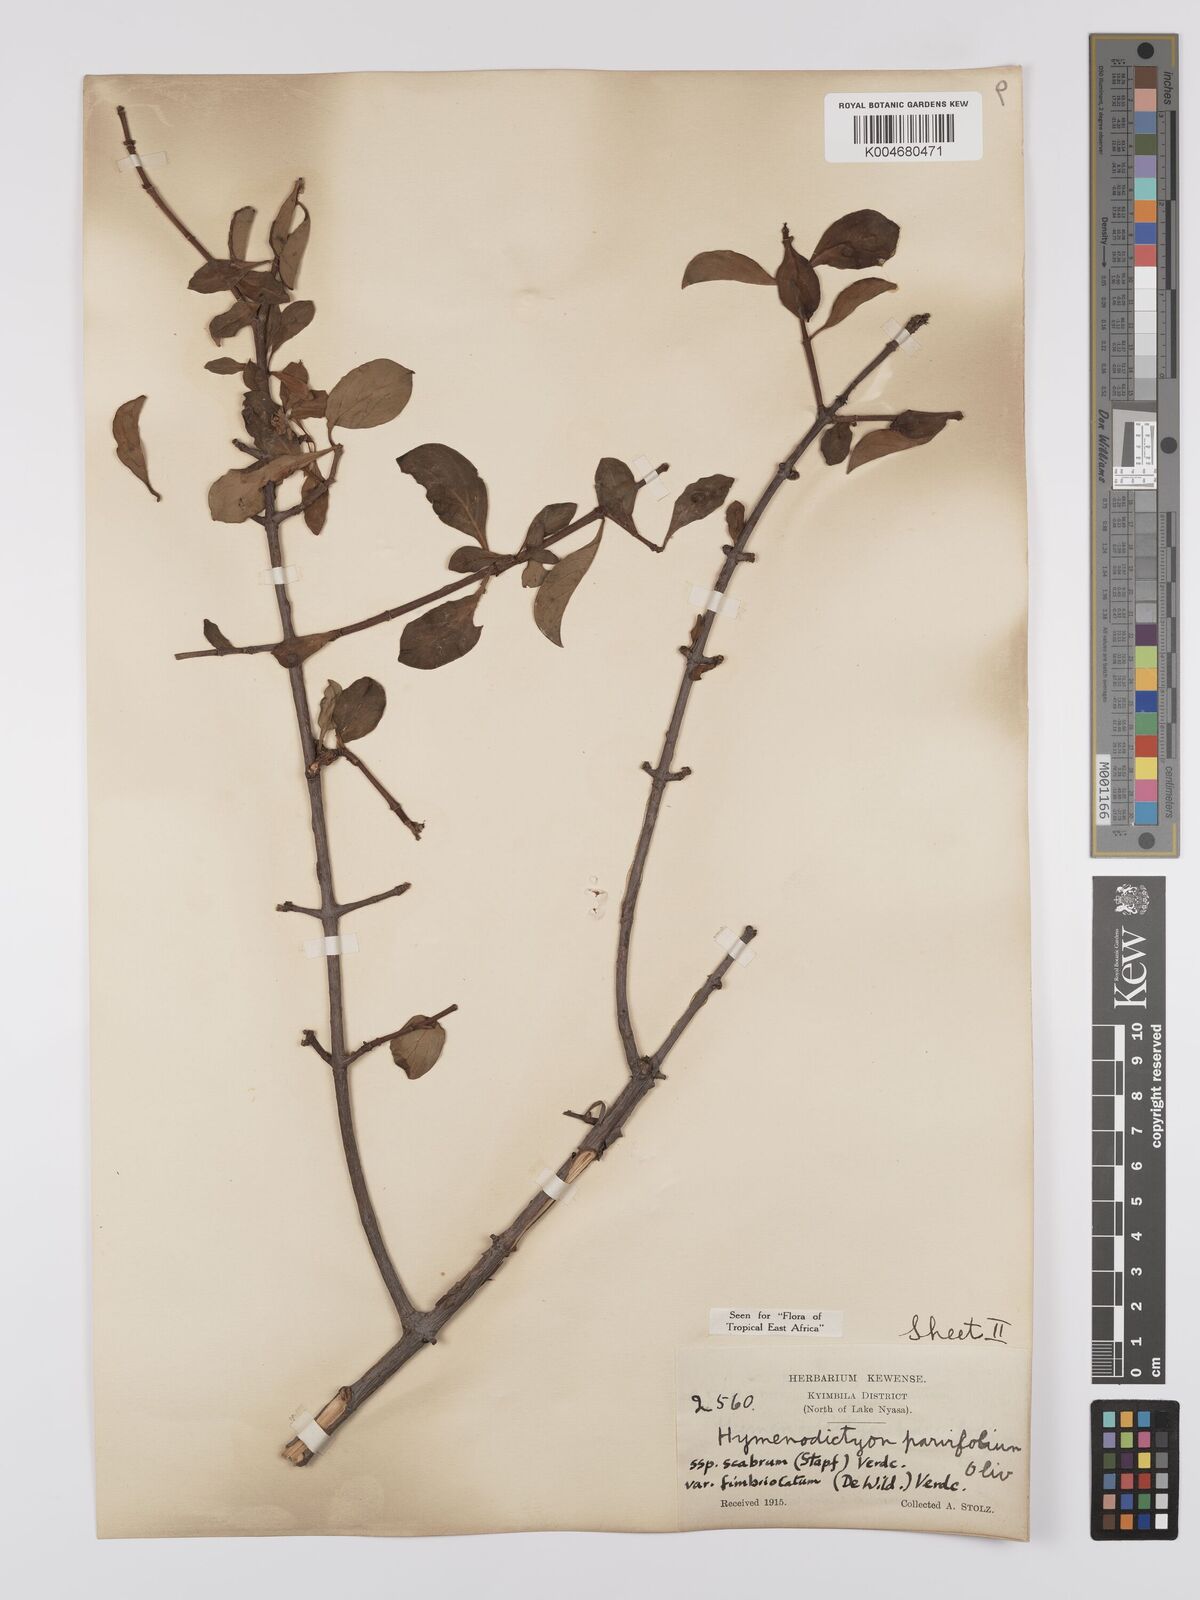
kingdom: Plantae
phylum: Tracheophyta
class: Magnoliopsida
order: Gentianales
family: Rubiaceae
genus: Hymenodictyon
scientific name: Hymenodictyon scabrum
